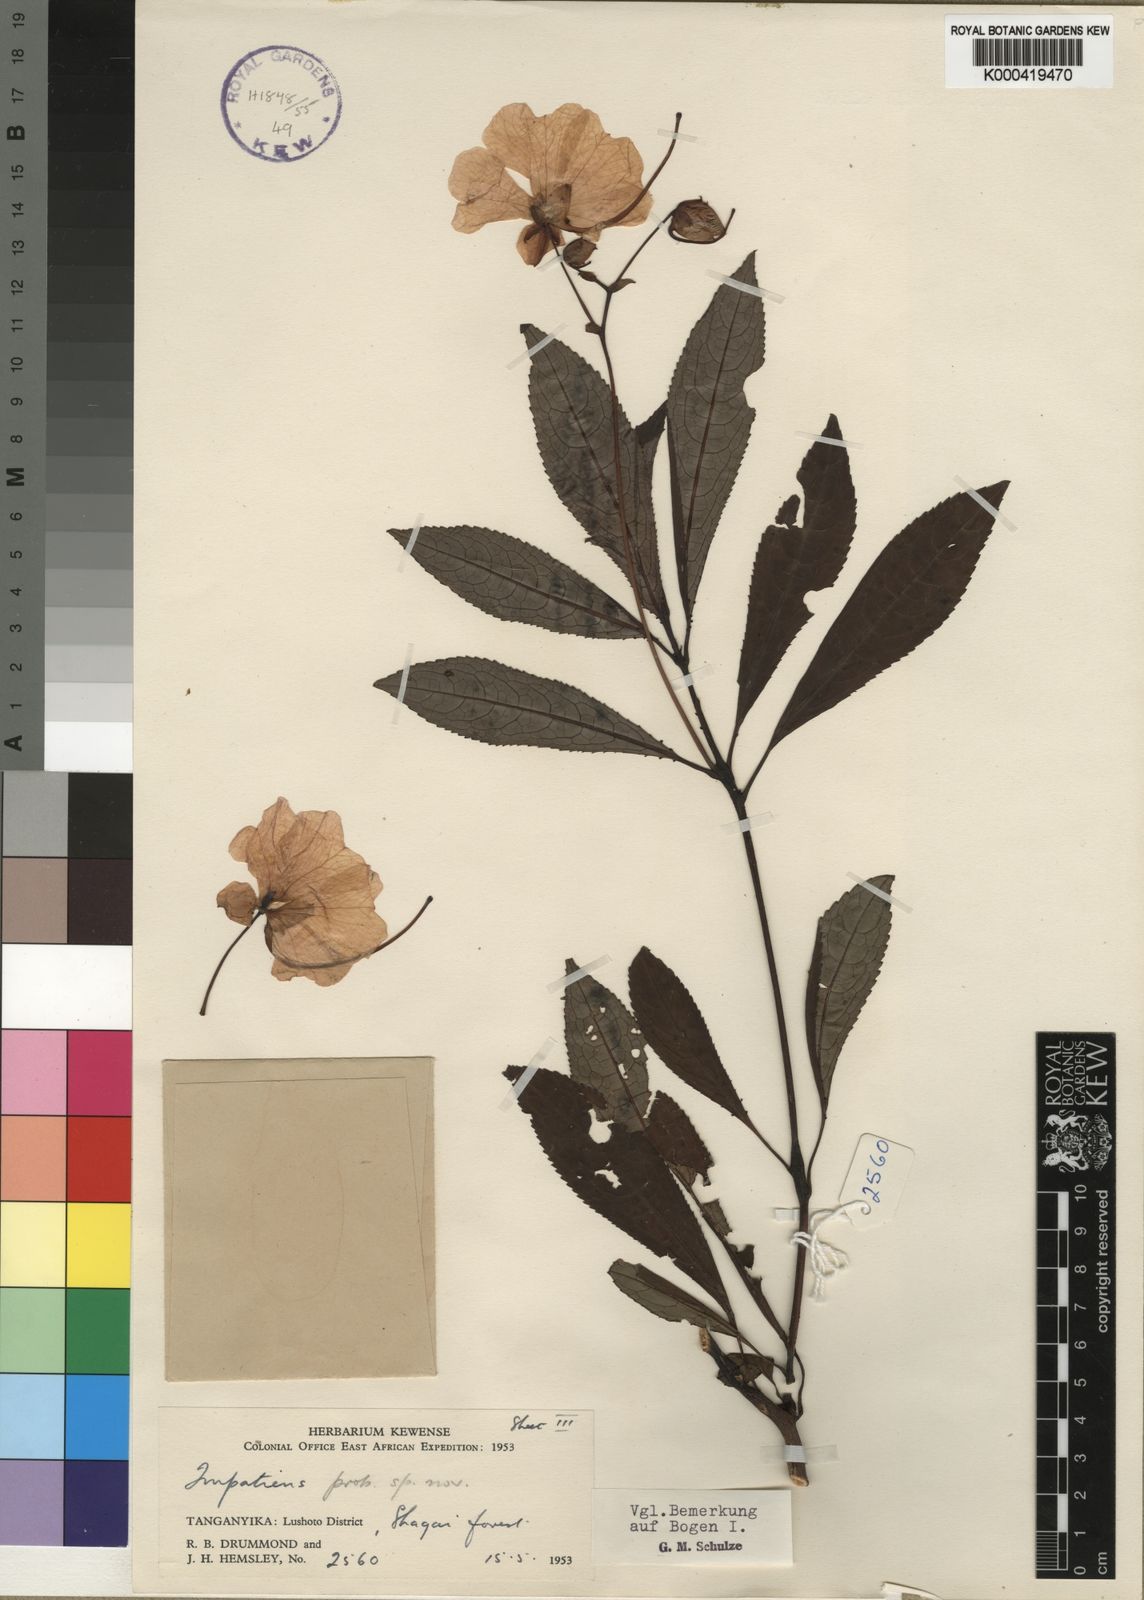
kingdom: Plantae
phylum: Tracheophyta
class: Magnoliopsida
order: Ericales
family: Balsaminaceae
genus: Impatiens
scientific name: Impatiens teitensis
